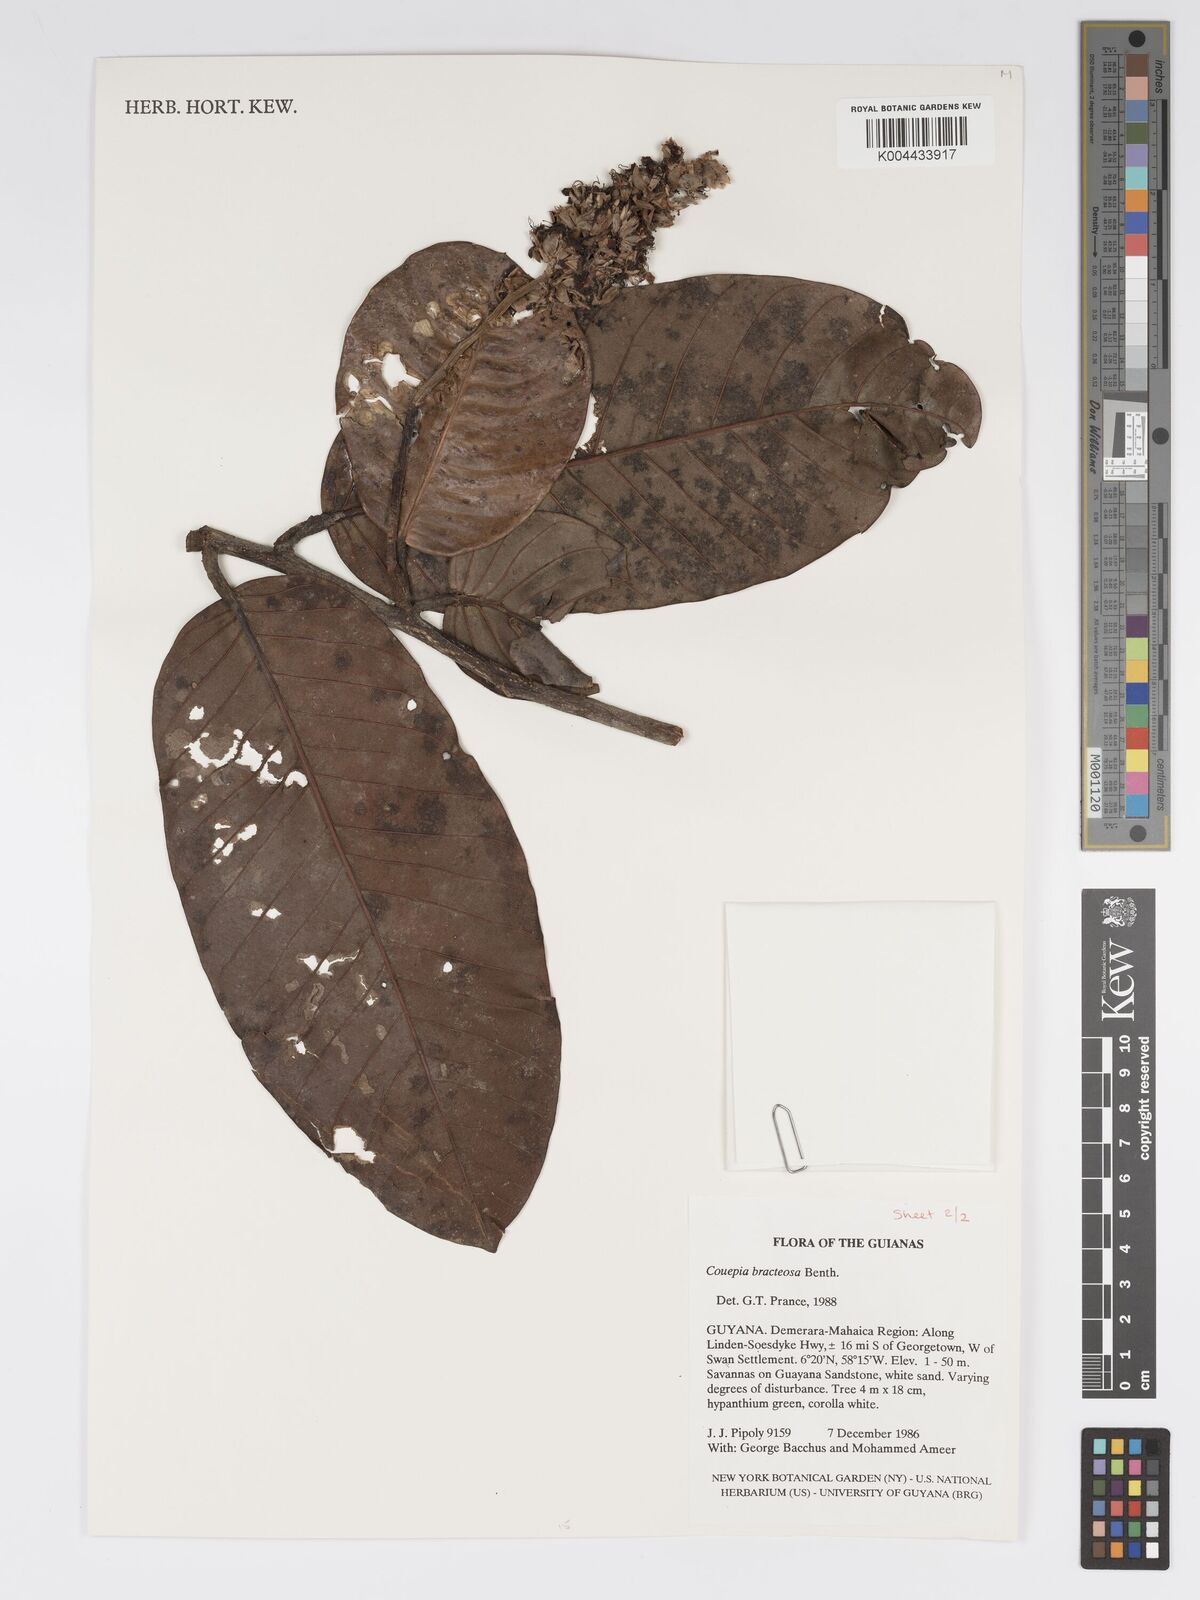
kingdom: Plantae
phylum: Tracheophyta
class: Magnoliopsida
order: Malpighiales
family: Chrysobalanaceae
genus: Couepia
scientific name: Couepia bracteosa
